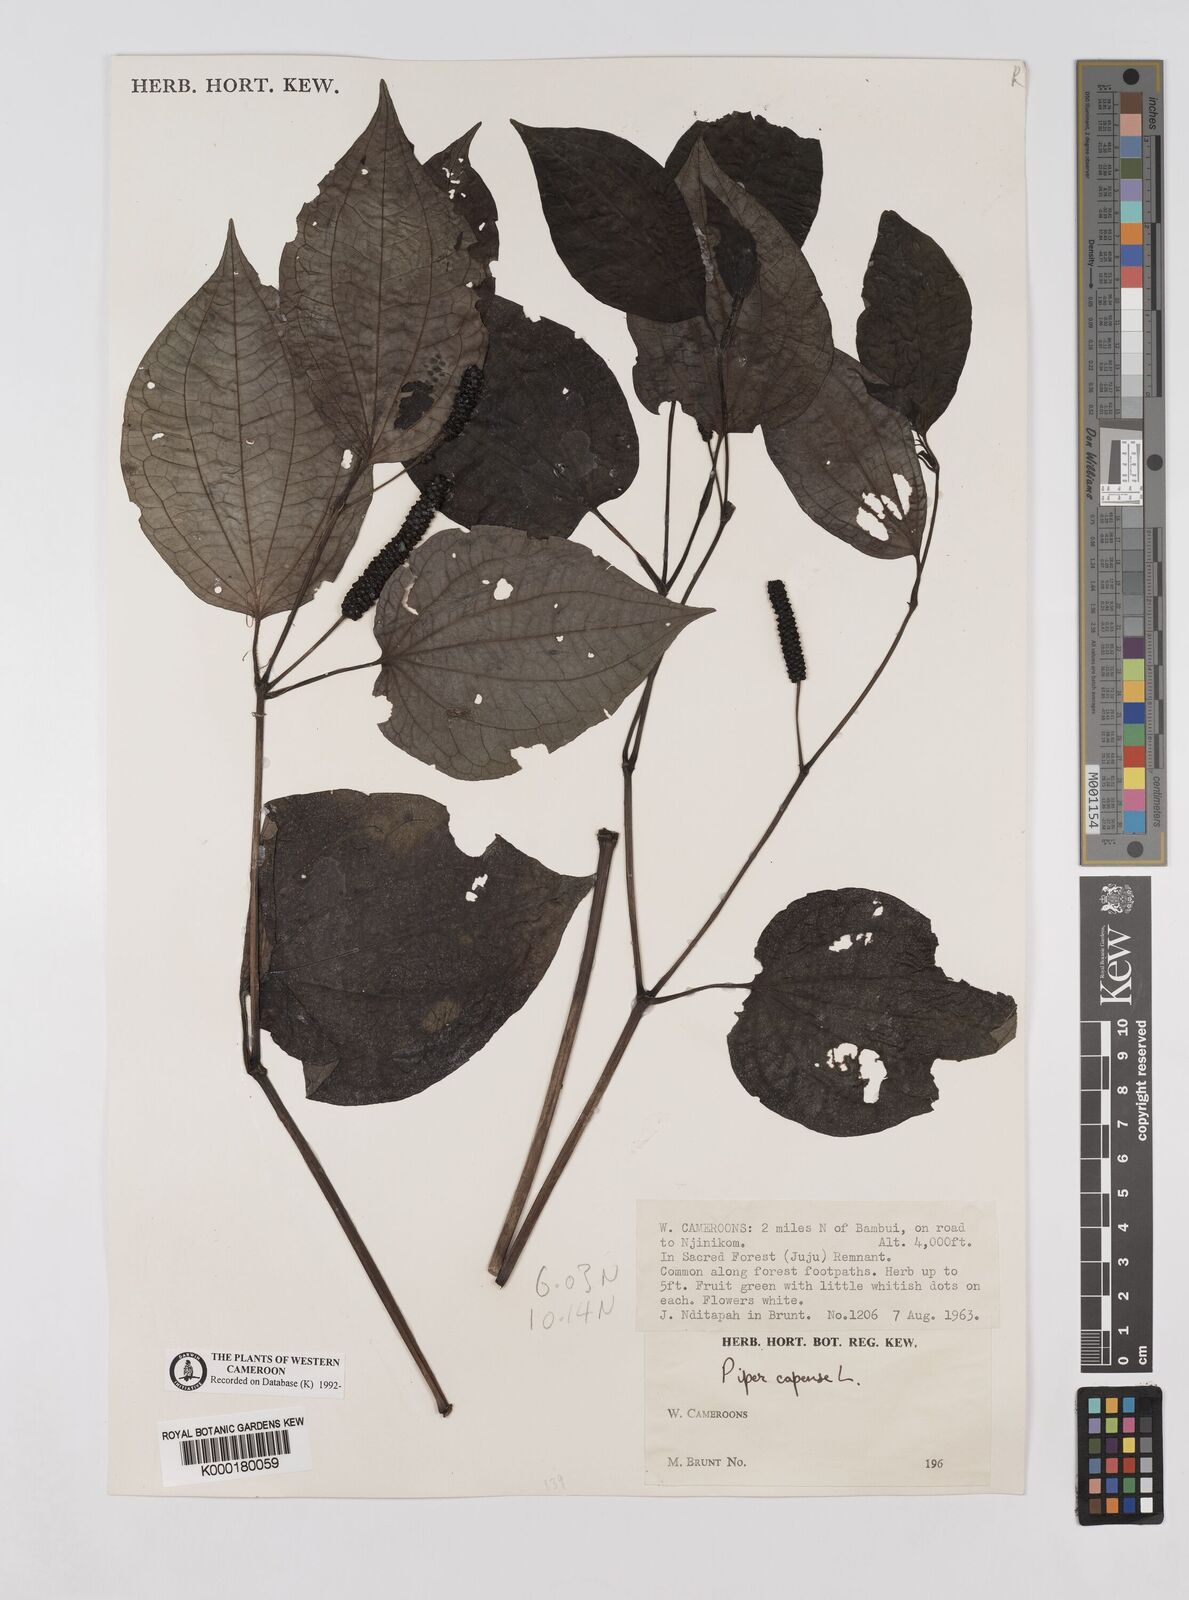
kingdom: Plantae
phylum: Tracheophyta
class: Magnoliopsida
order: Piperales
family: Piperaceae
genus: Piper
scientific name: Piper capense
